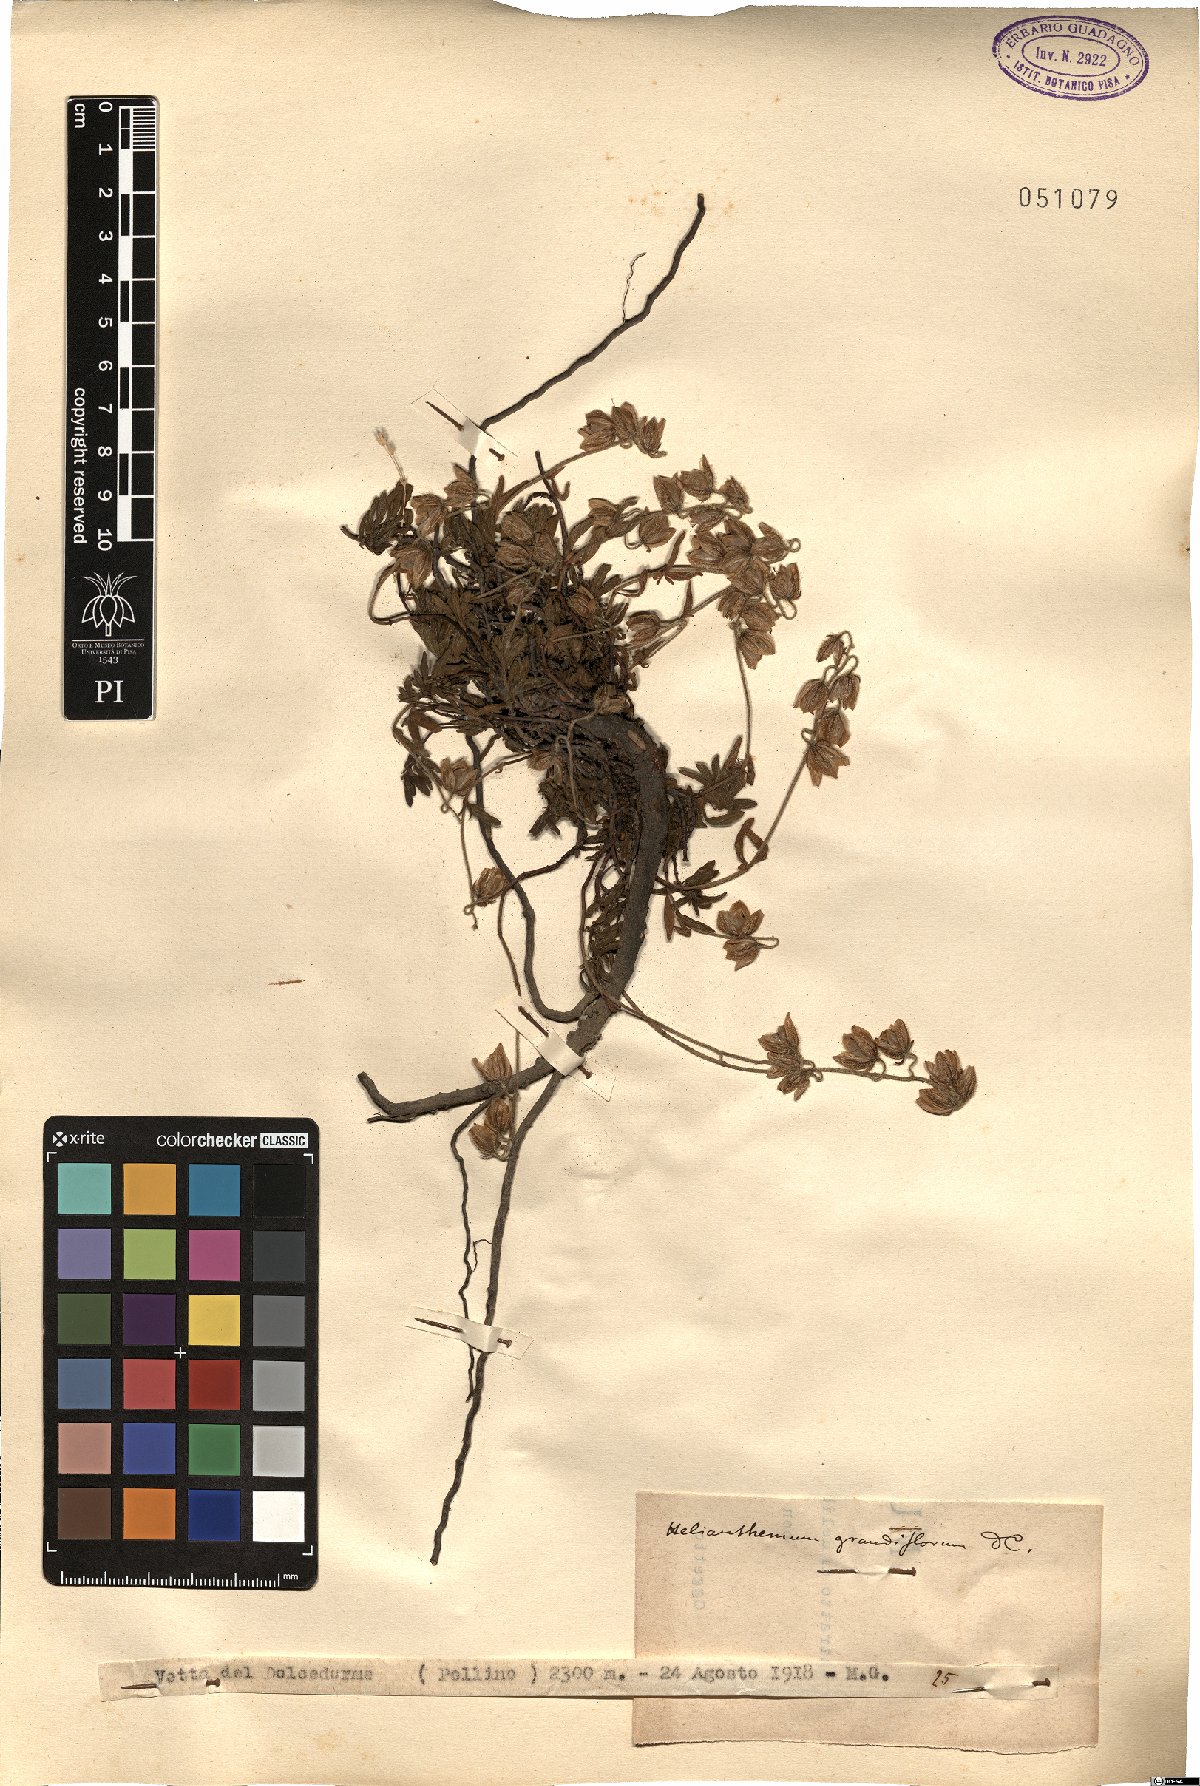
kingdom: Plantae
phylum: Tracheophyta
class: Magnoliopsida
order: Malvales
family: Cistaceae
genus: Helianthemum
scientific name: Helianthemum nummularium
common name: Common rock-rose
